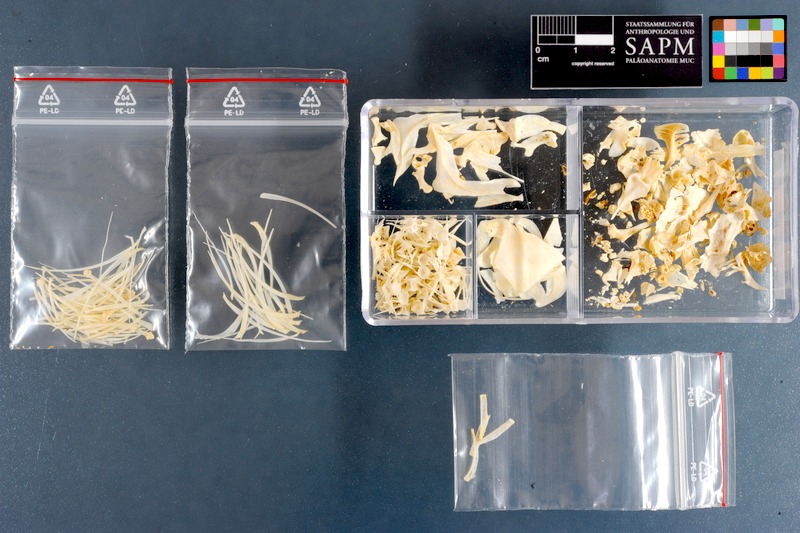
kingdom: Animalia
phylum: Chordata
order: Cypriniformes
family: Cyprinidae
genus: Capoeta
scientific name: Capoeta damascina
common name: Levantine scraper
